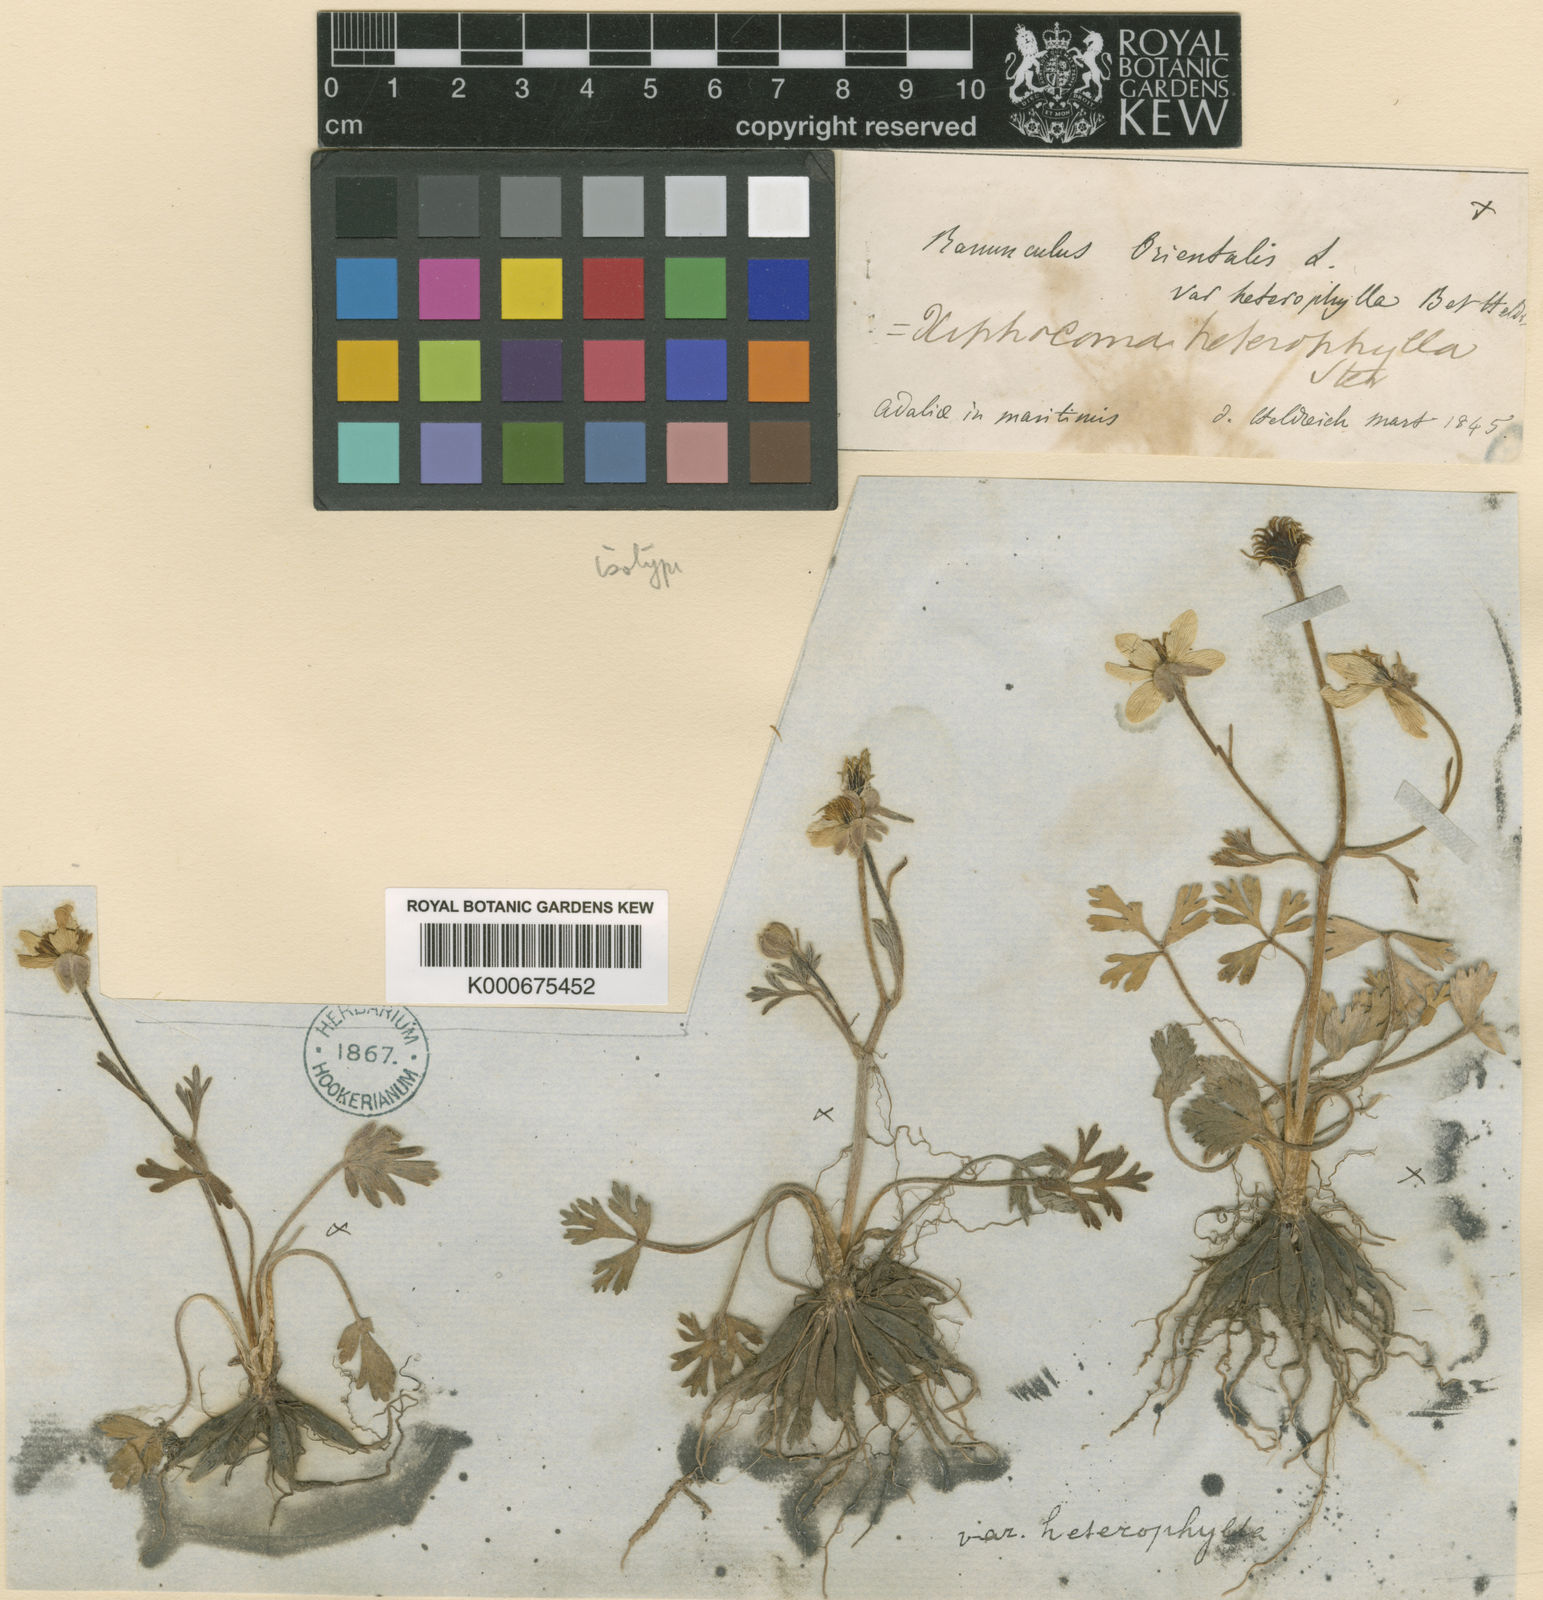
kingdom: Plantae
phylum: Tracheophyta
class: Magnoliopsida
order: Ranunculales
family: Ranunculaceae
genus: Ranunculus
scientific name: Ranunculus isthmicus
